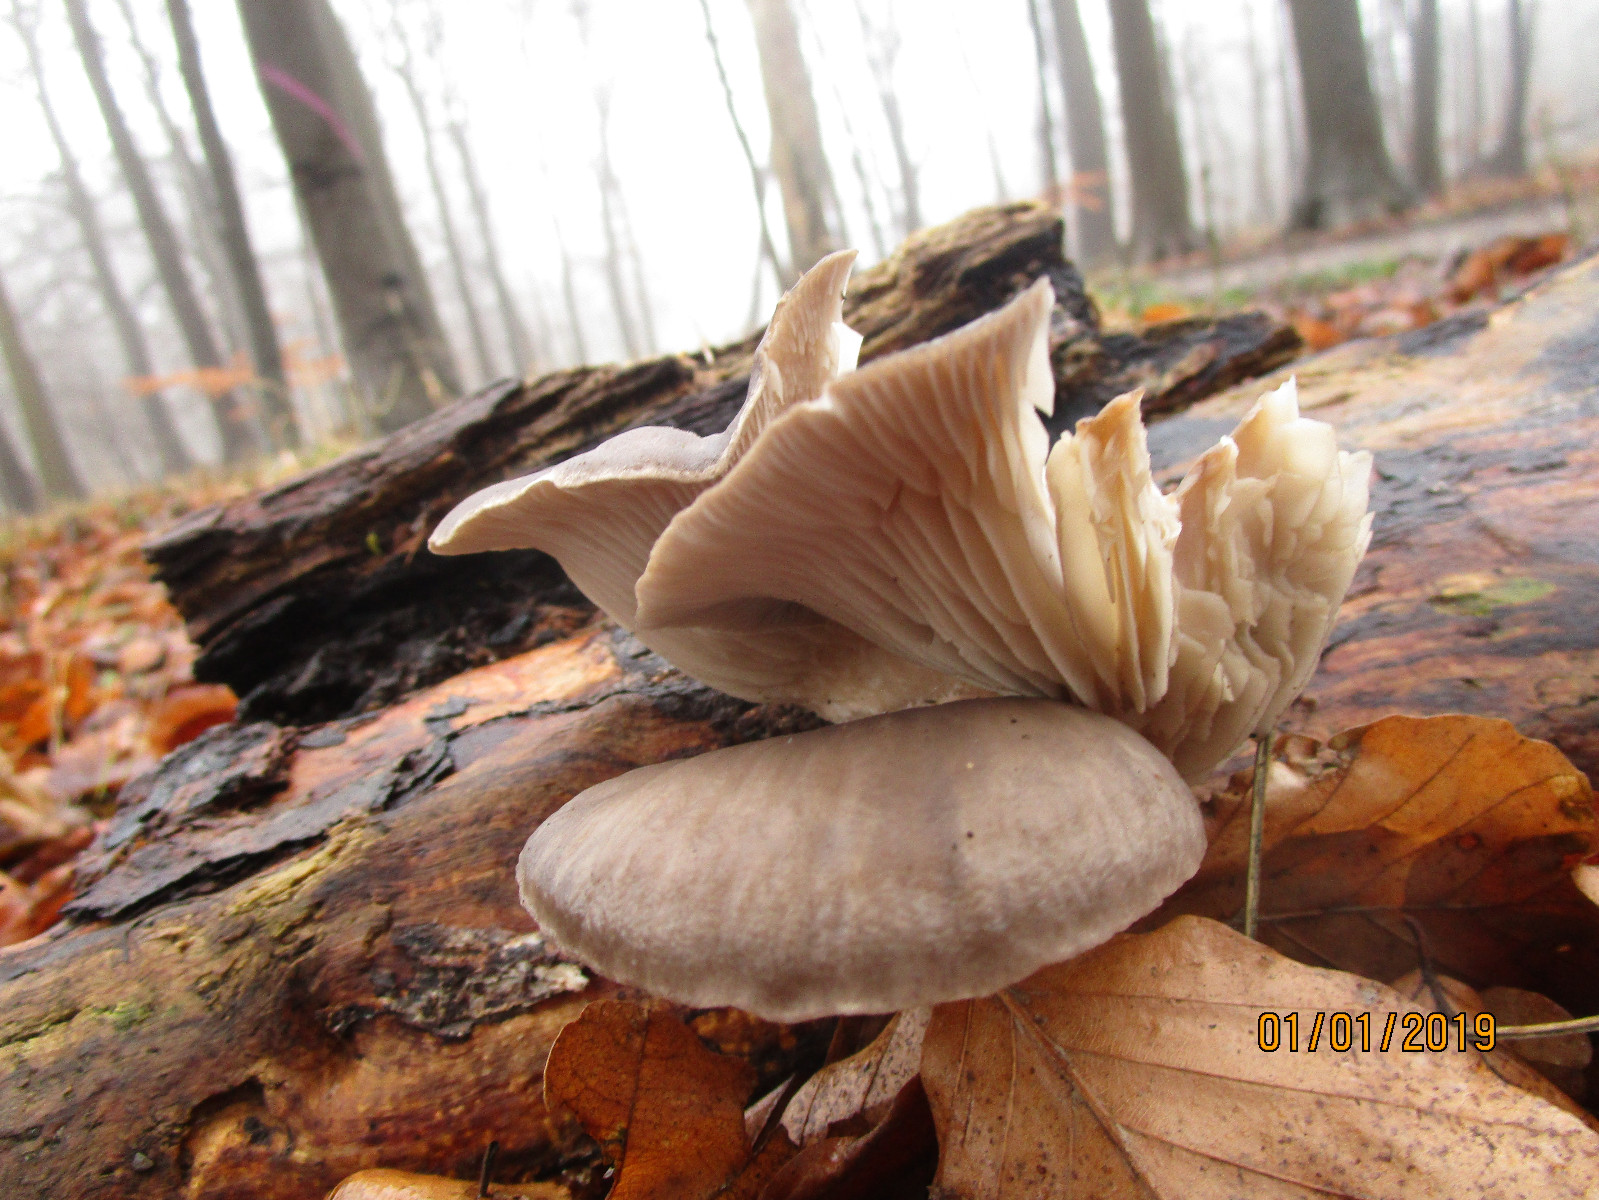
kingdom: Fungi
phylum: Basidiomycota
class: Agaricomycetes
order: Agaricales
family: Pleurotaceae
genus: Pleurotus
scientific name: Pleurotus ostreatus
